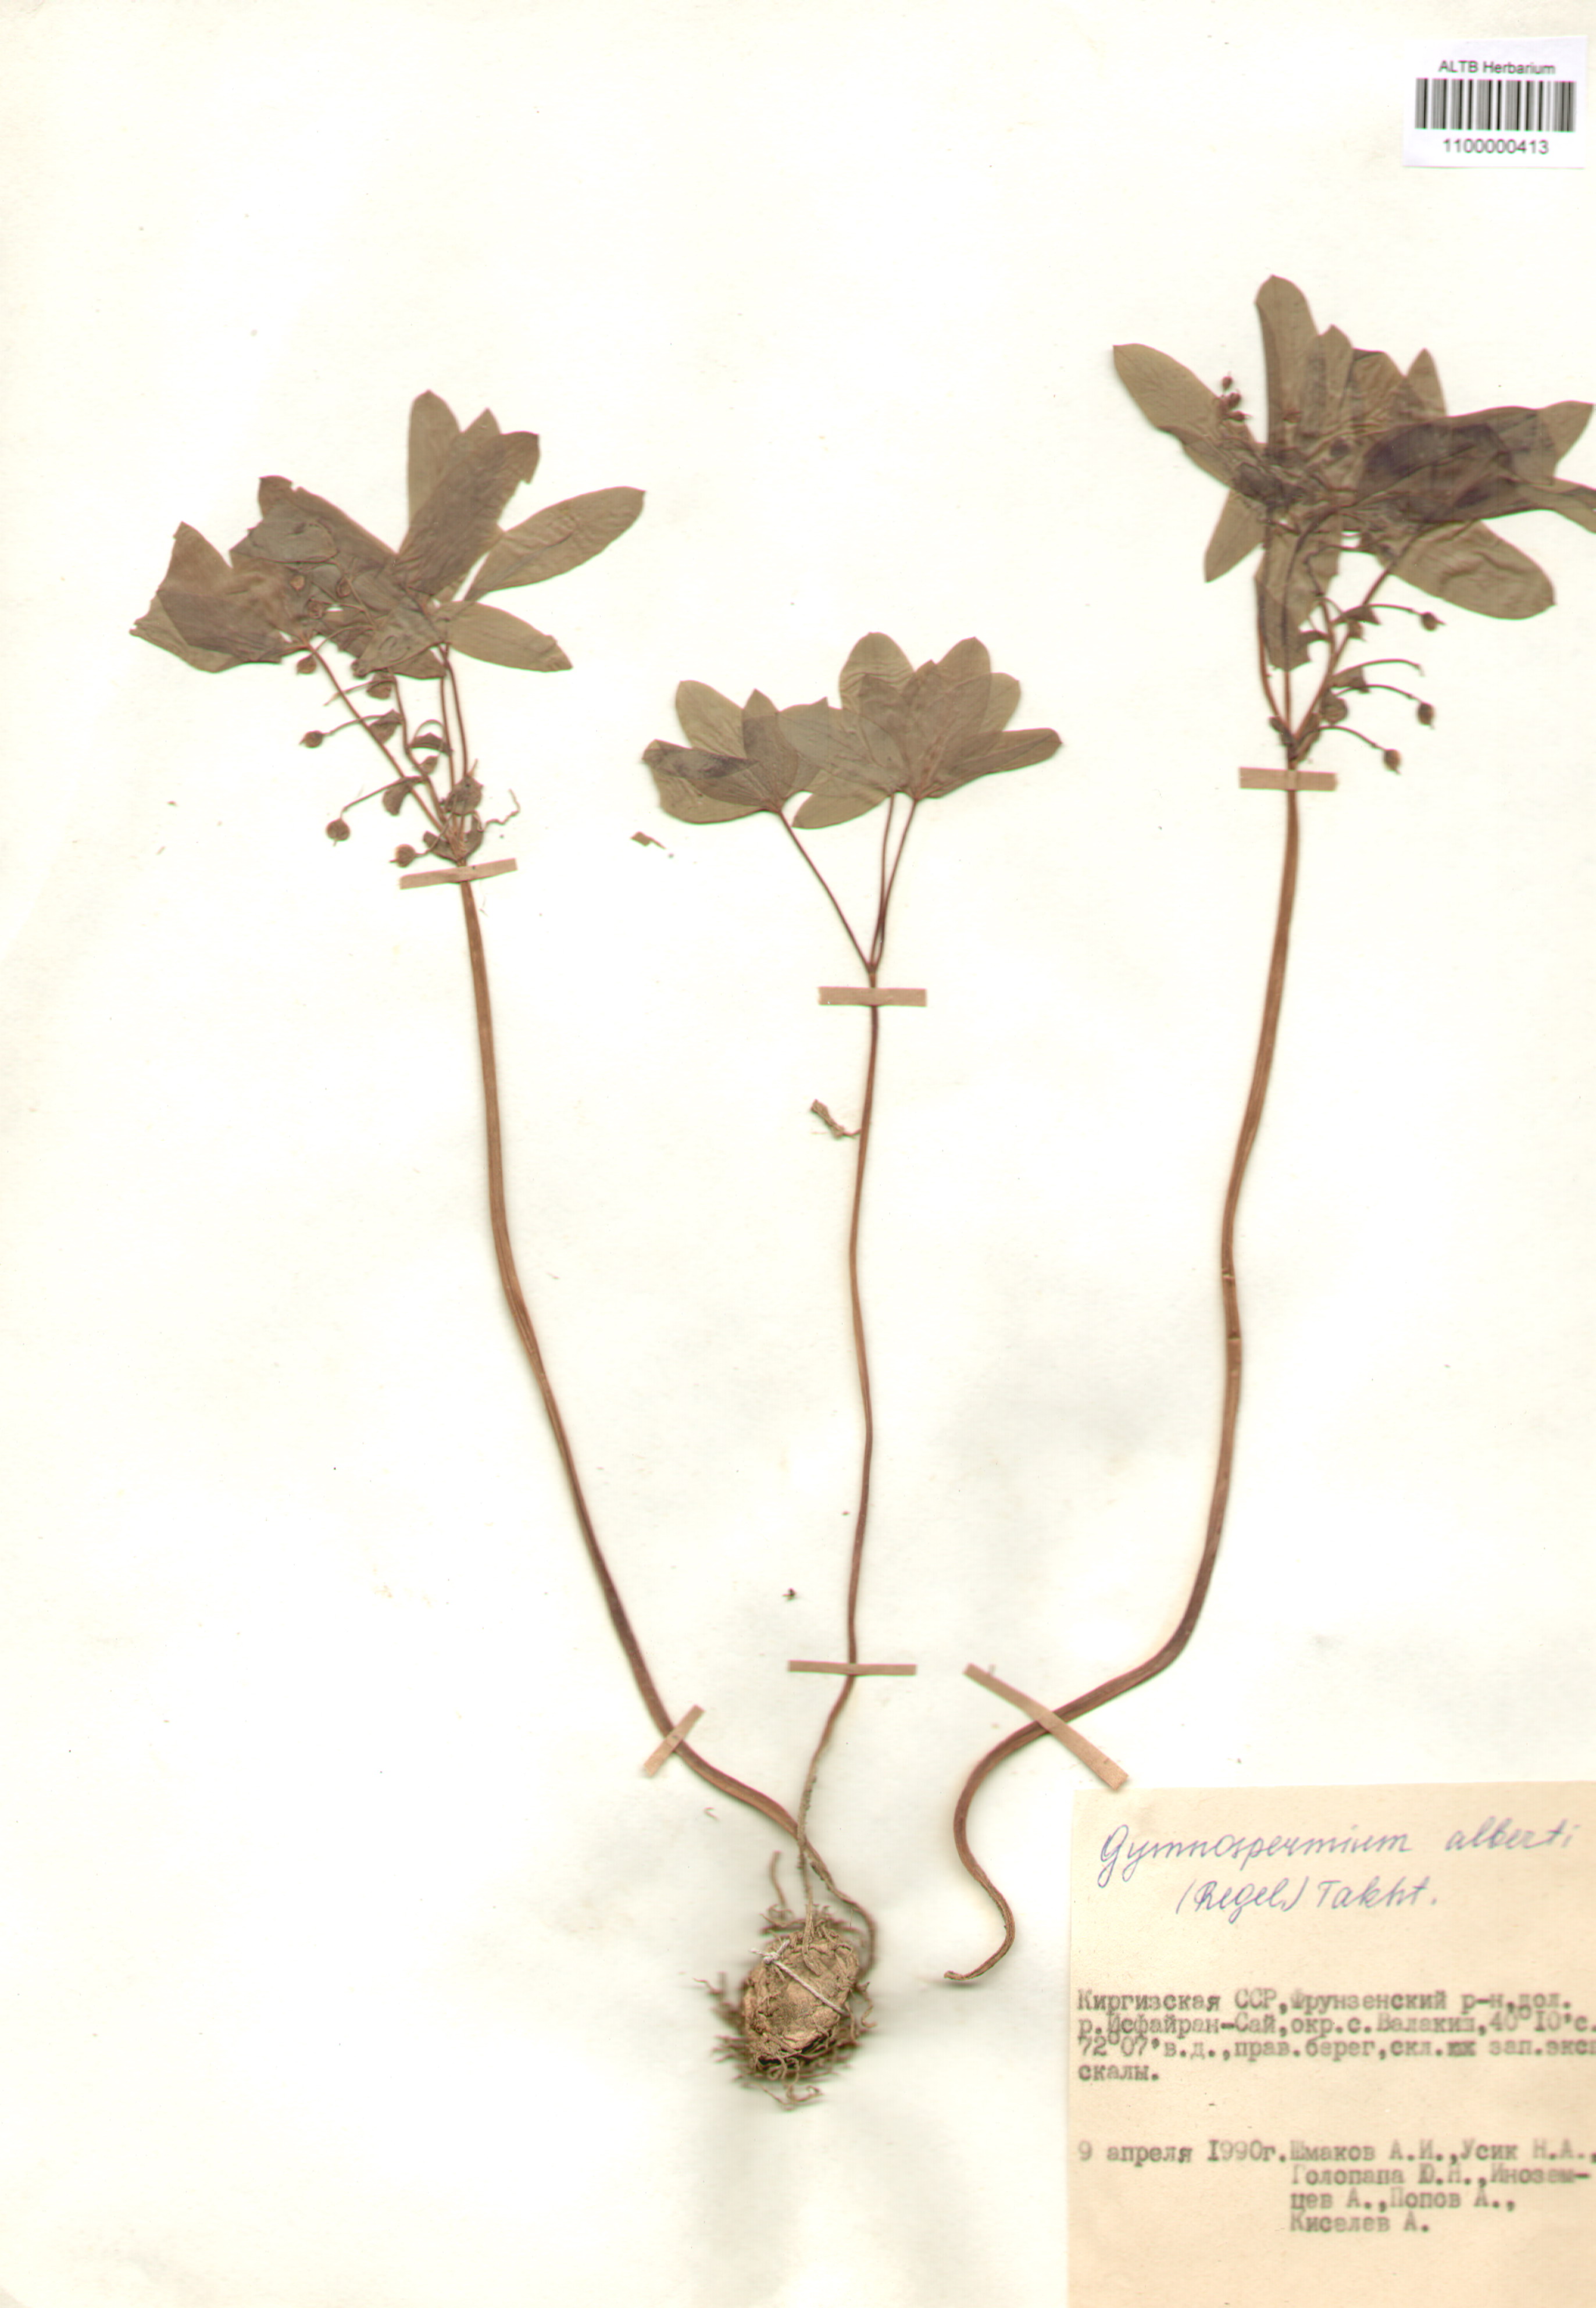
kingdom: Plantae
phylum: Tracheophyta
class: Magnoliopsida
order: Ranunculales
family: Berberidaceae
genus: Gymnospermium
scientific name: Gymnospermium alberti
